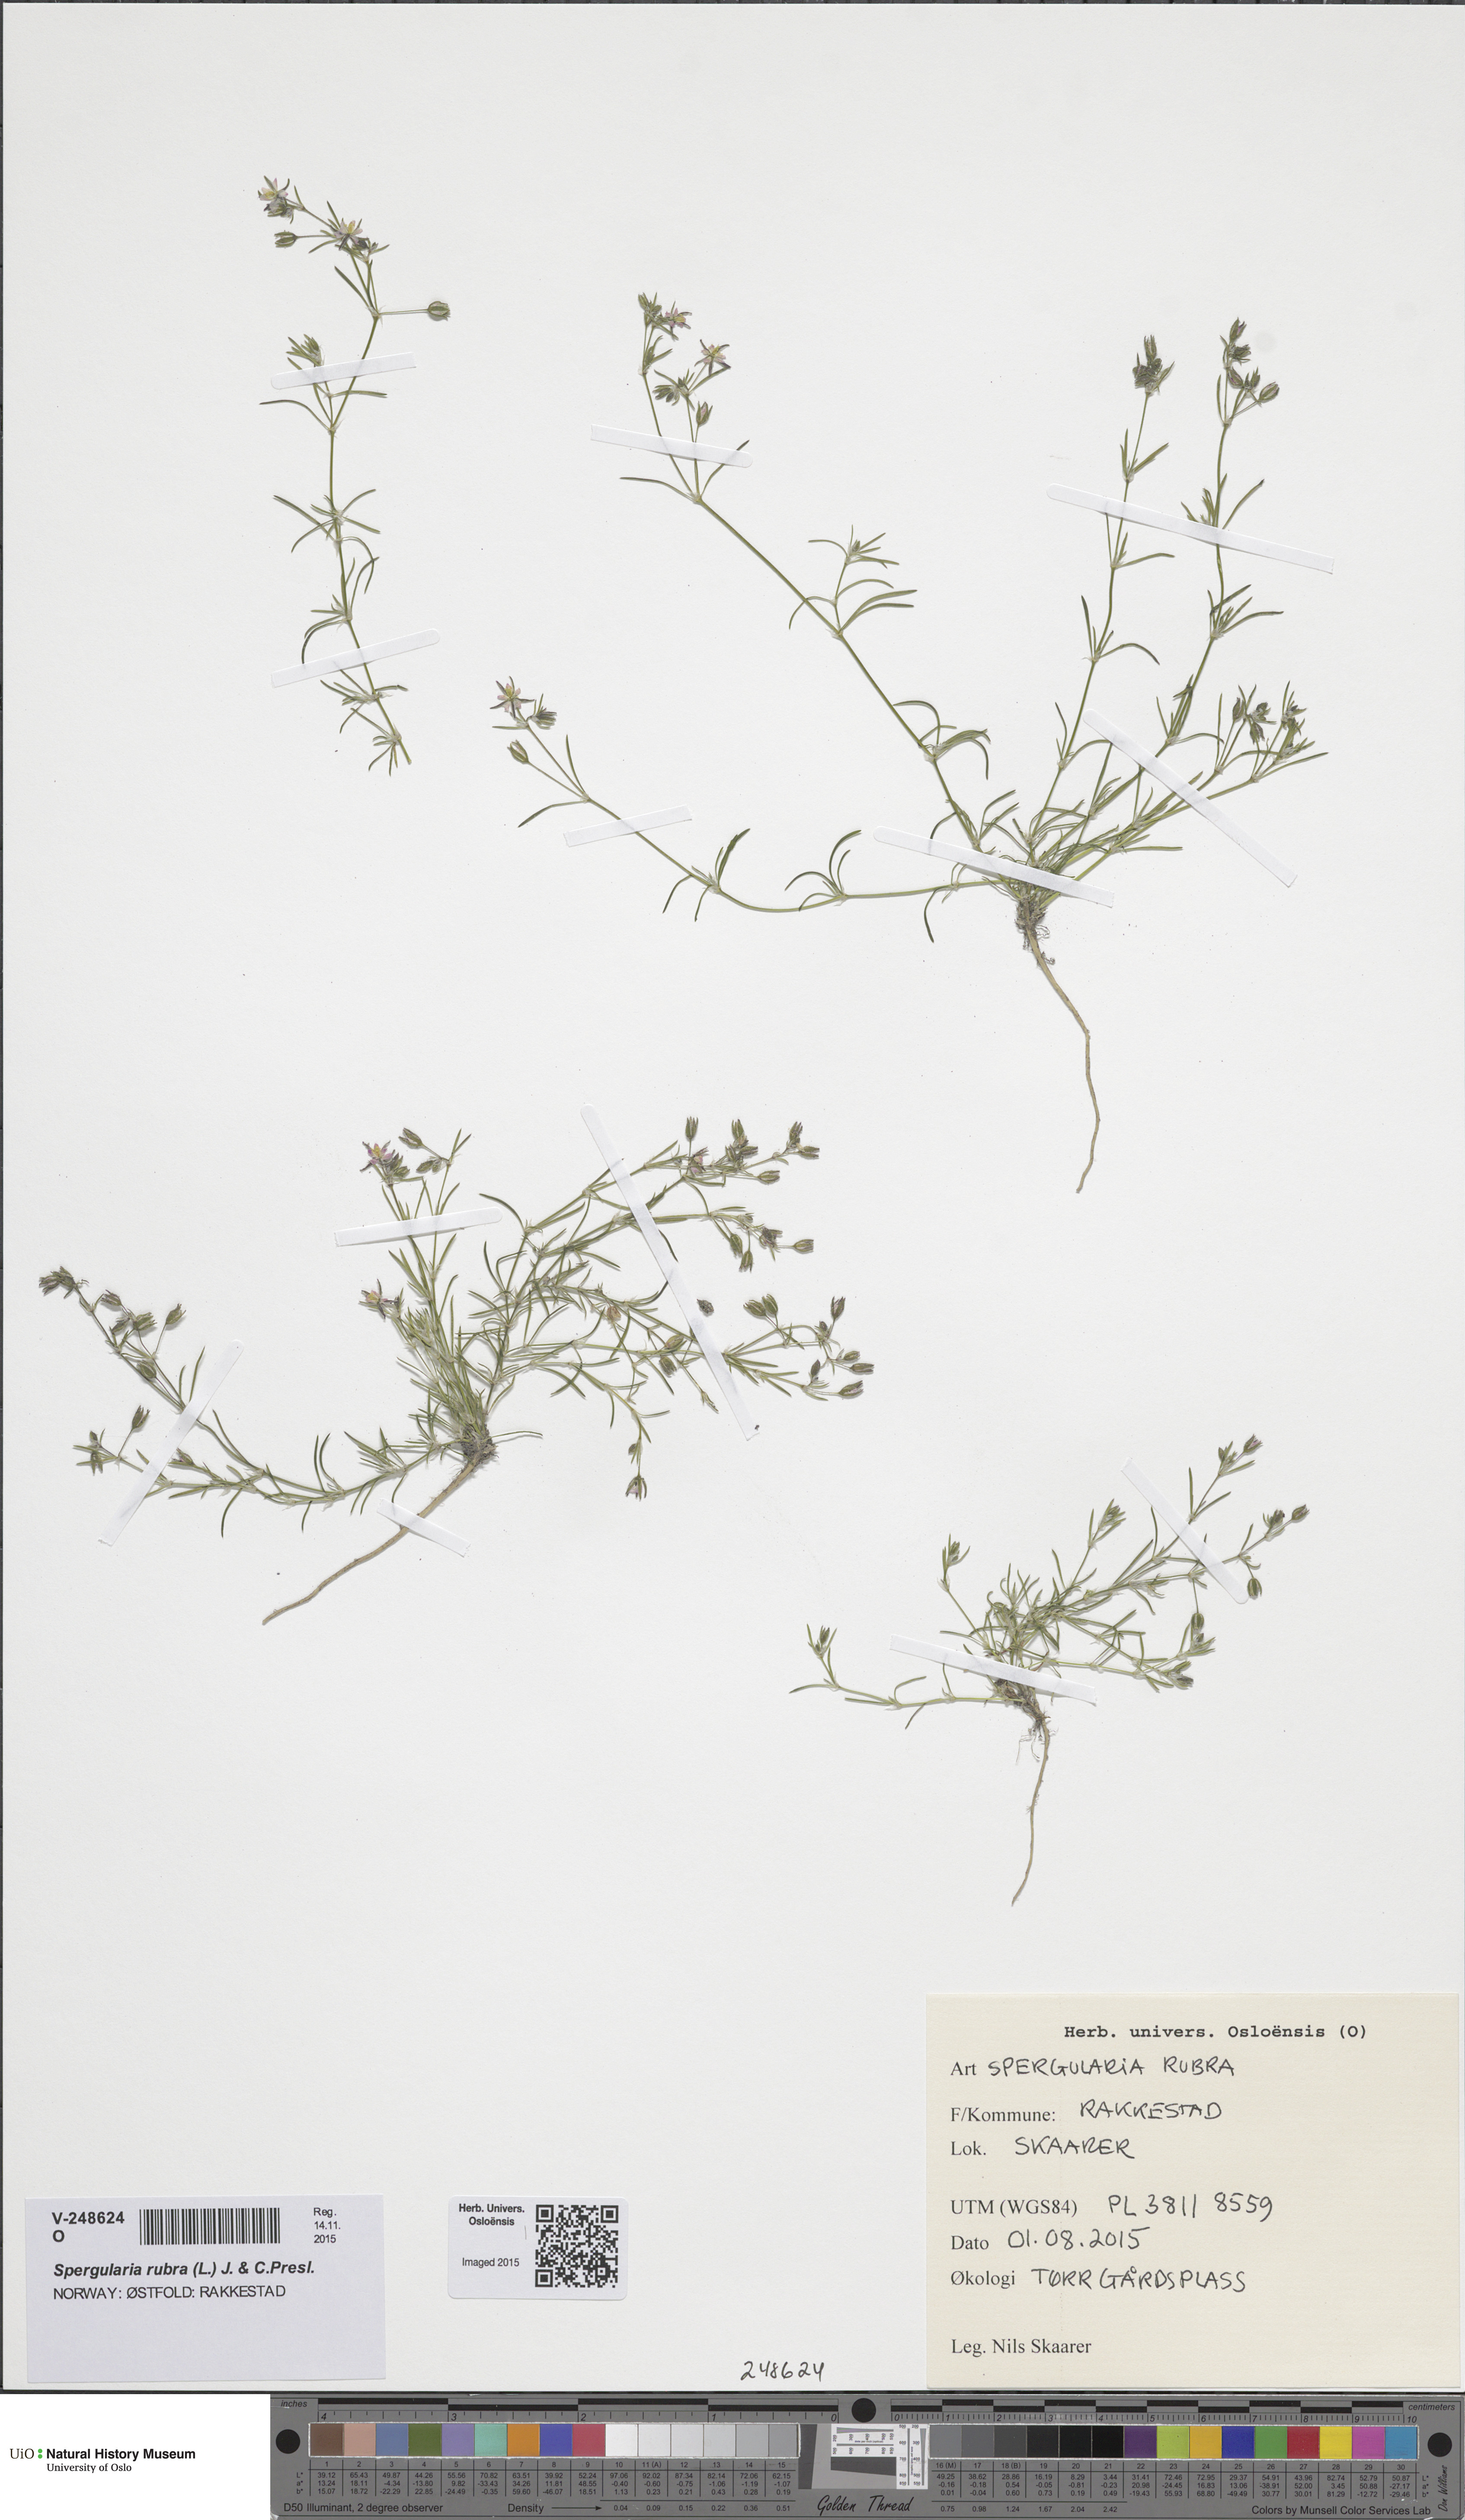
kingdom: Plantae
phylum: Tracheophyta
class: Magnoliopsida
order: Caryophyllales
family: Caryophyllaceae
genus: Spergularia
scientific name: Spergularia rubra
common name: Red sand-spurrey
